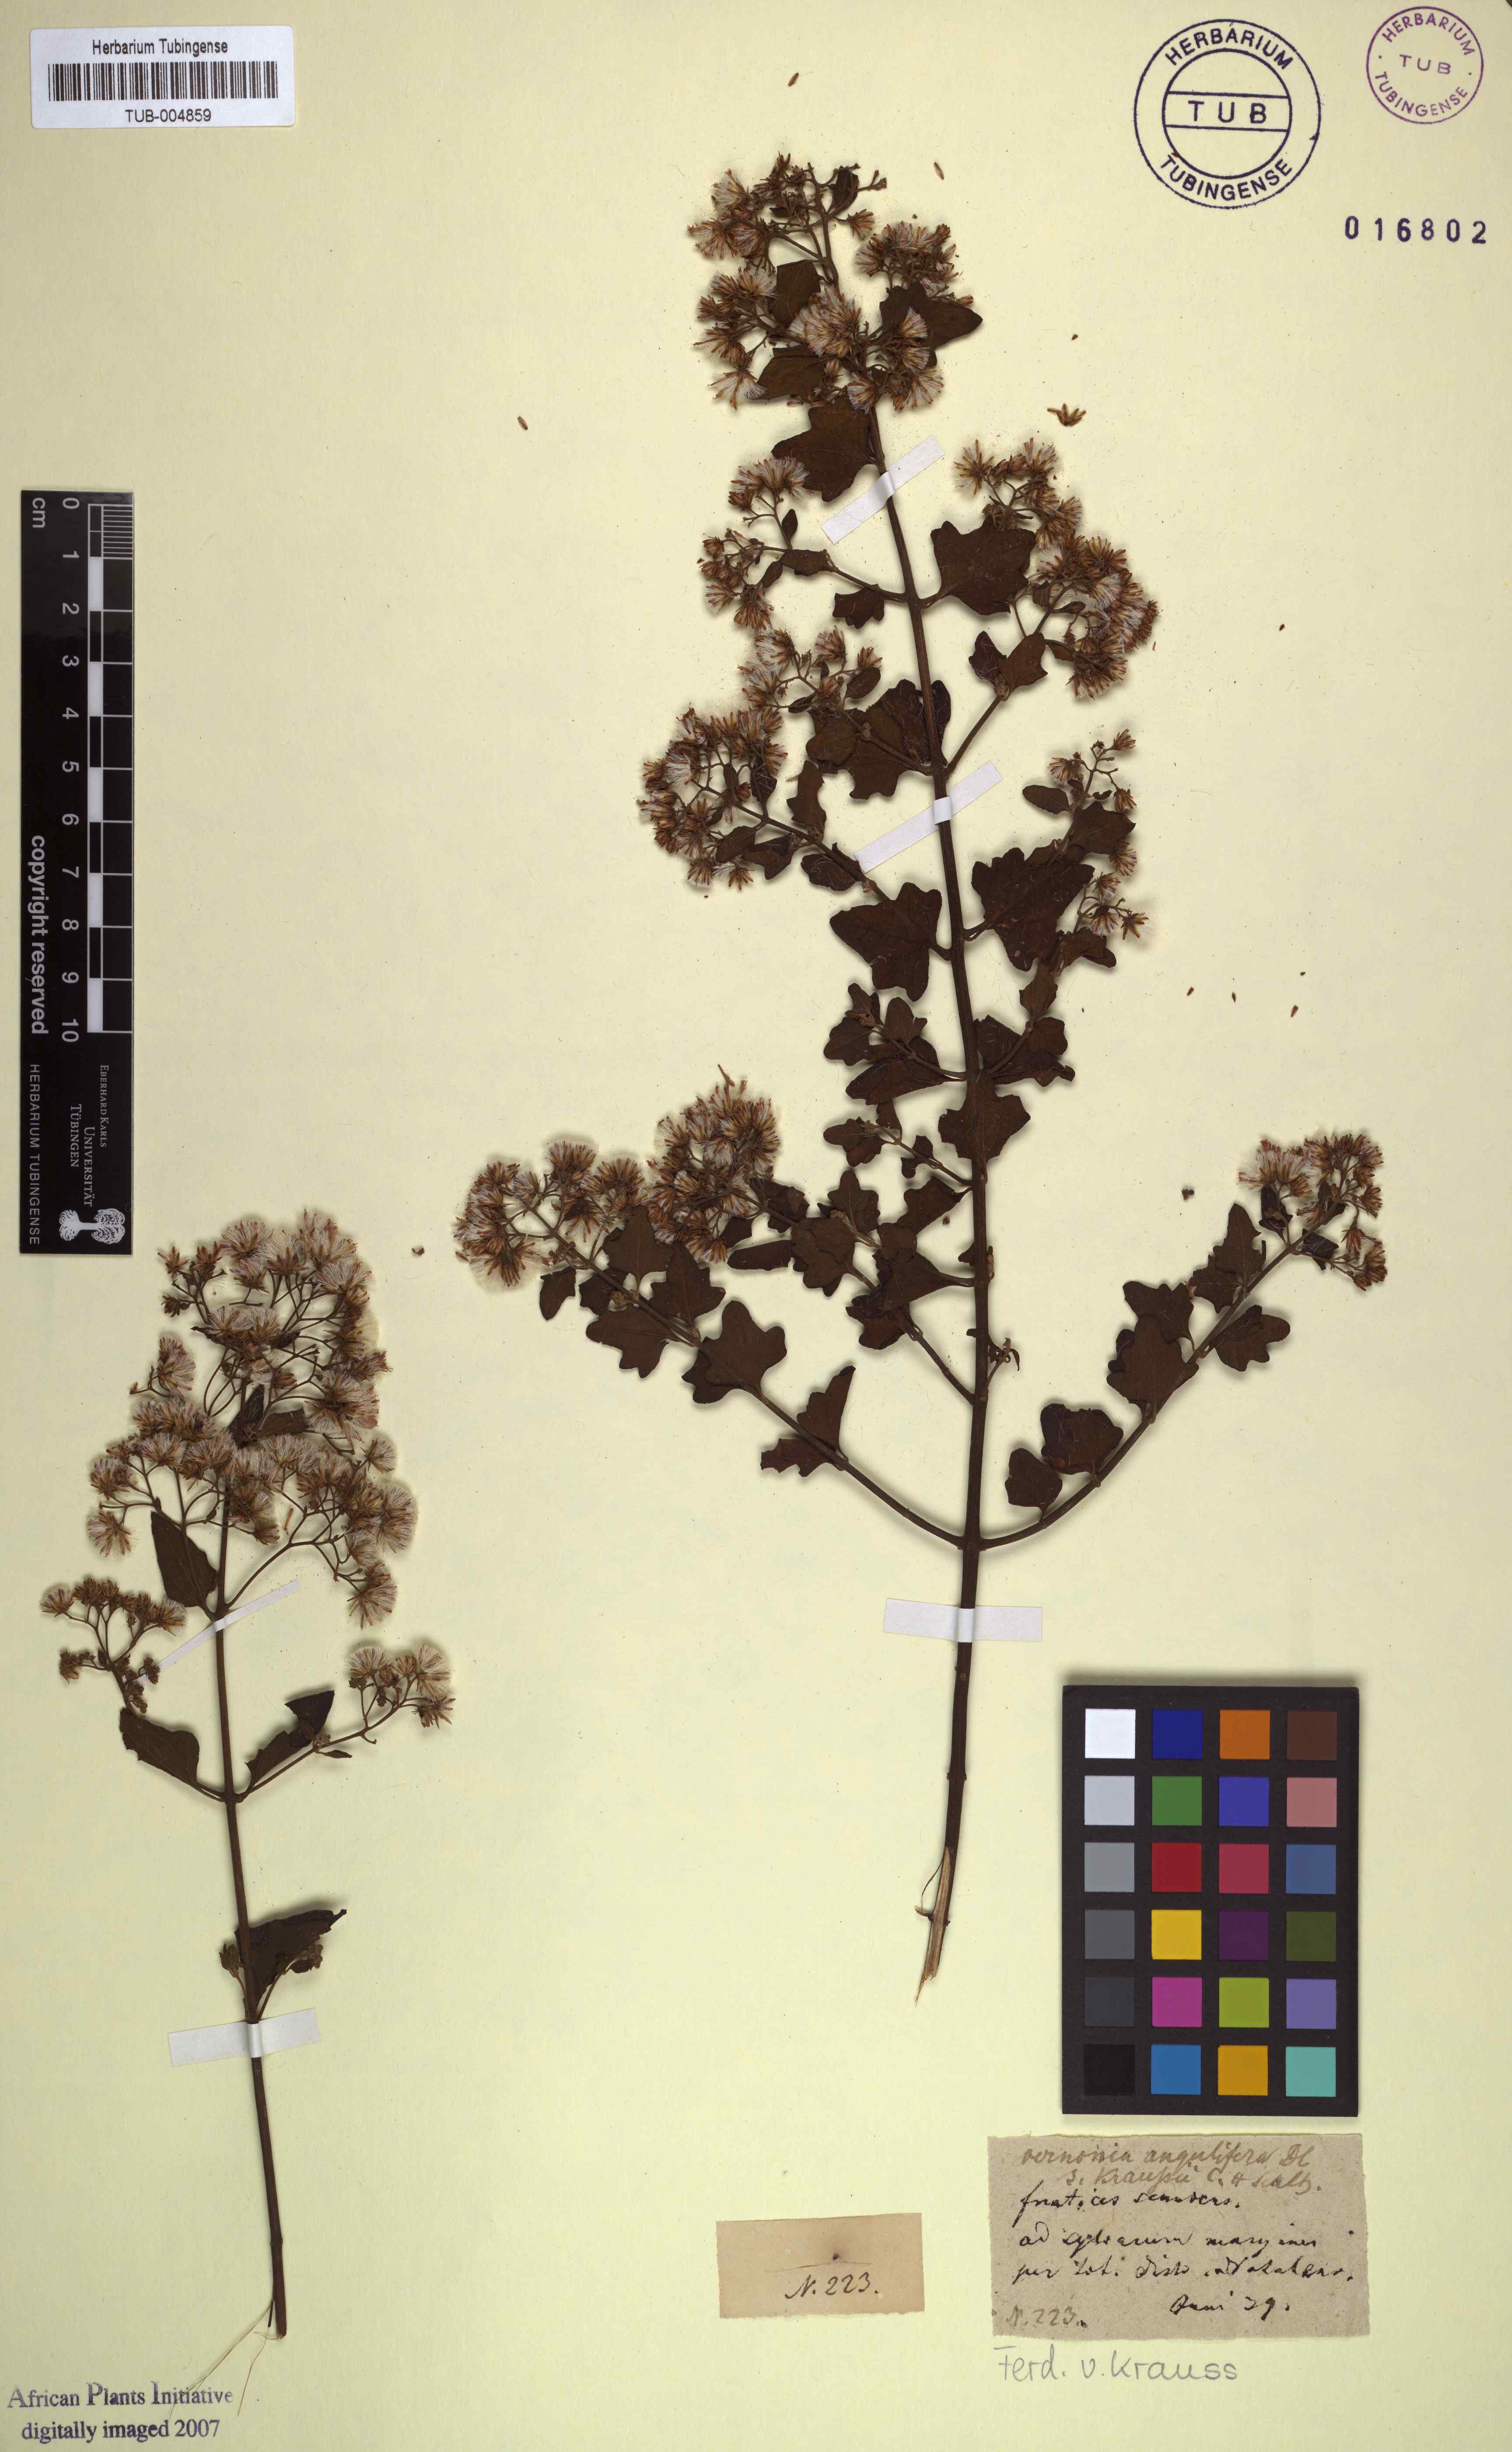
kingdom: Plantae
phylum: Tracheophyta
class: Magnoliopsida
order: Asterales
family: Asteraceae
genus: Vernonia
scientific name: Vernonia
